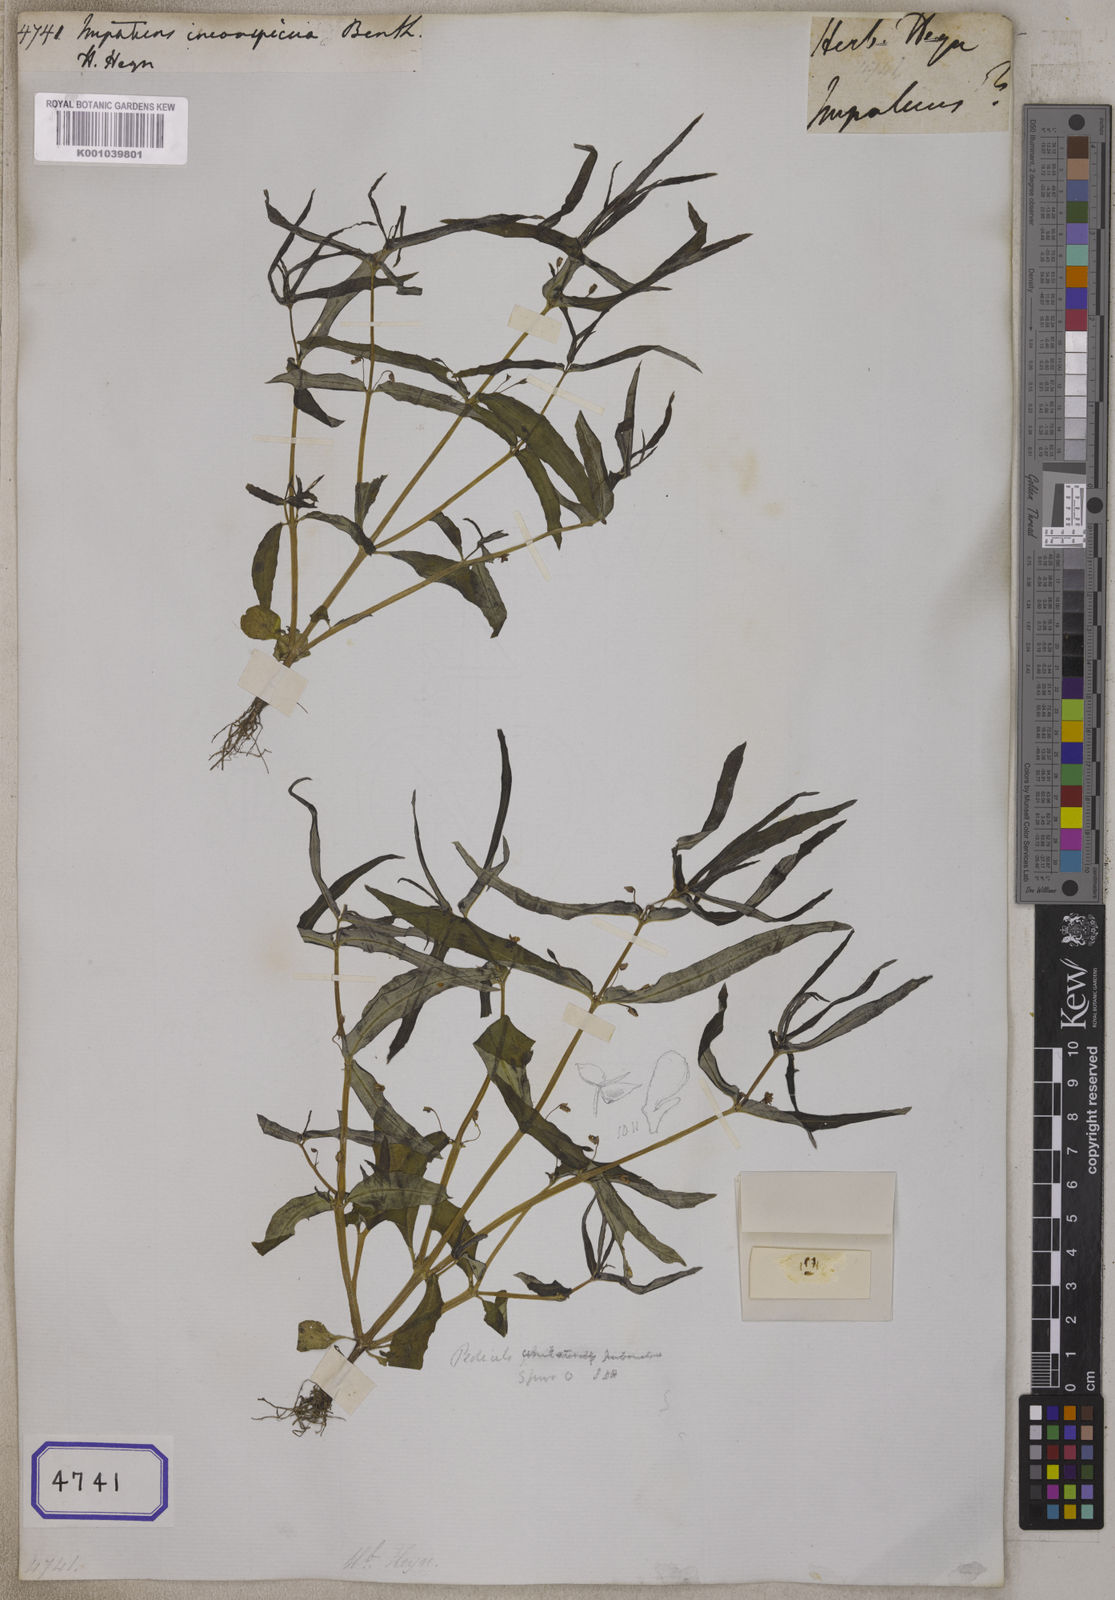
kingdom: Plantae
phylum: Tracheophyta
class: Magnoliopsida
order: Ericales
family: Balsaminaceae
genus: Impatiens
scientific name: Impatiens
